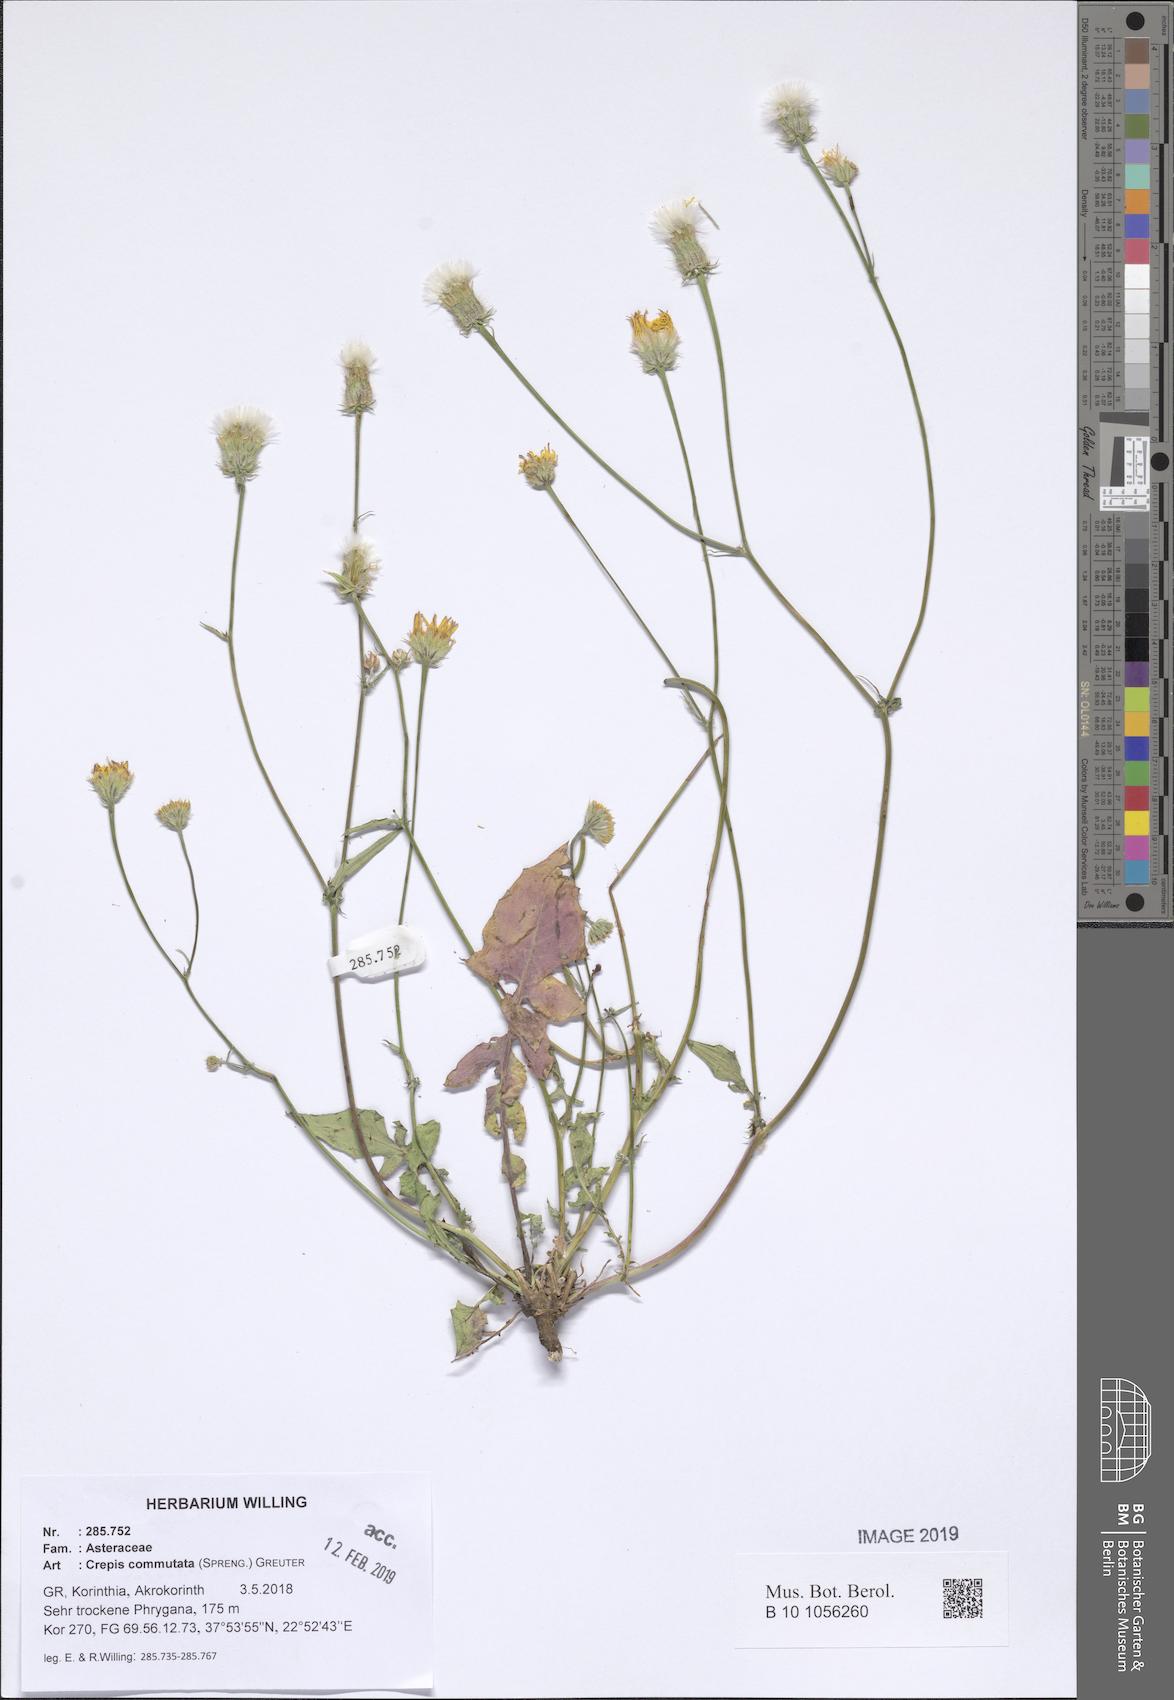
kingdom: Plantae
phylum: Tracheophyta
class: Magnoliopsida
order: Asterales
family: Asteraceae
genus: Crepis
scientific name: Crepis commutata
